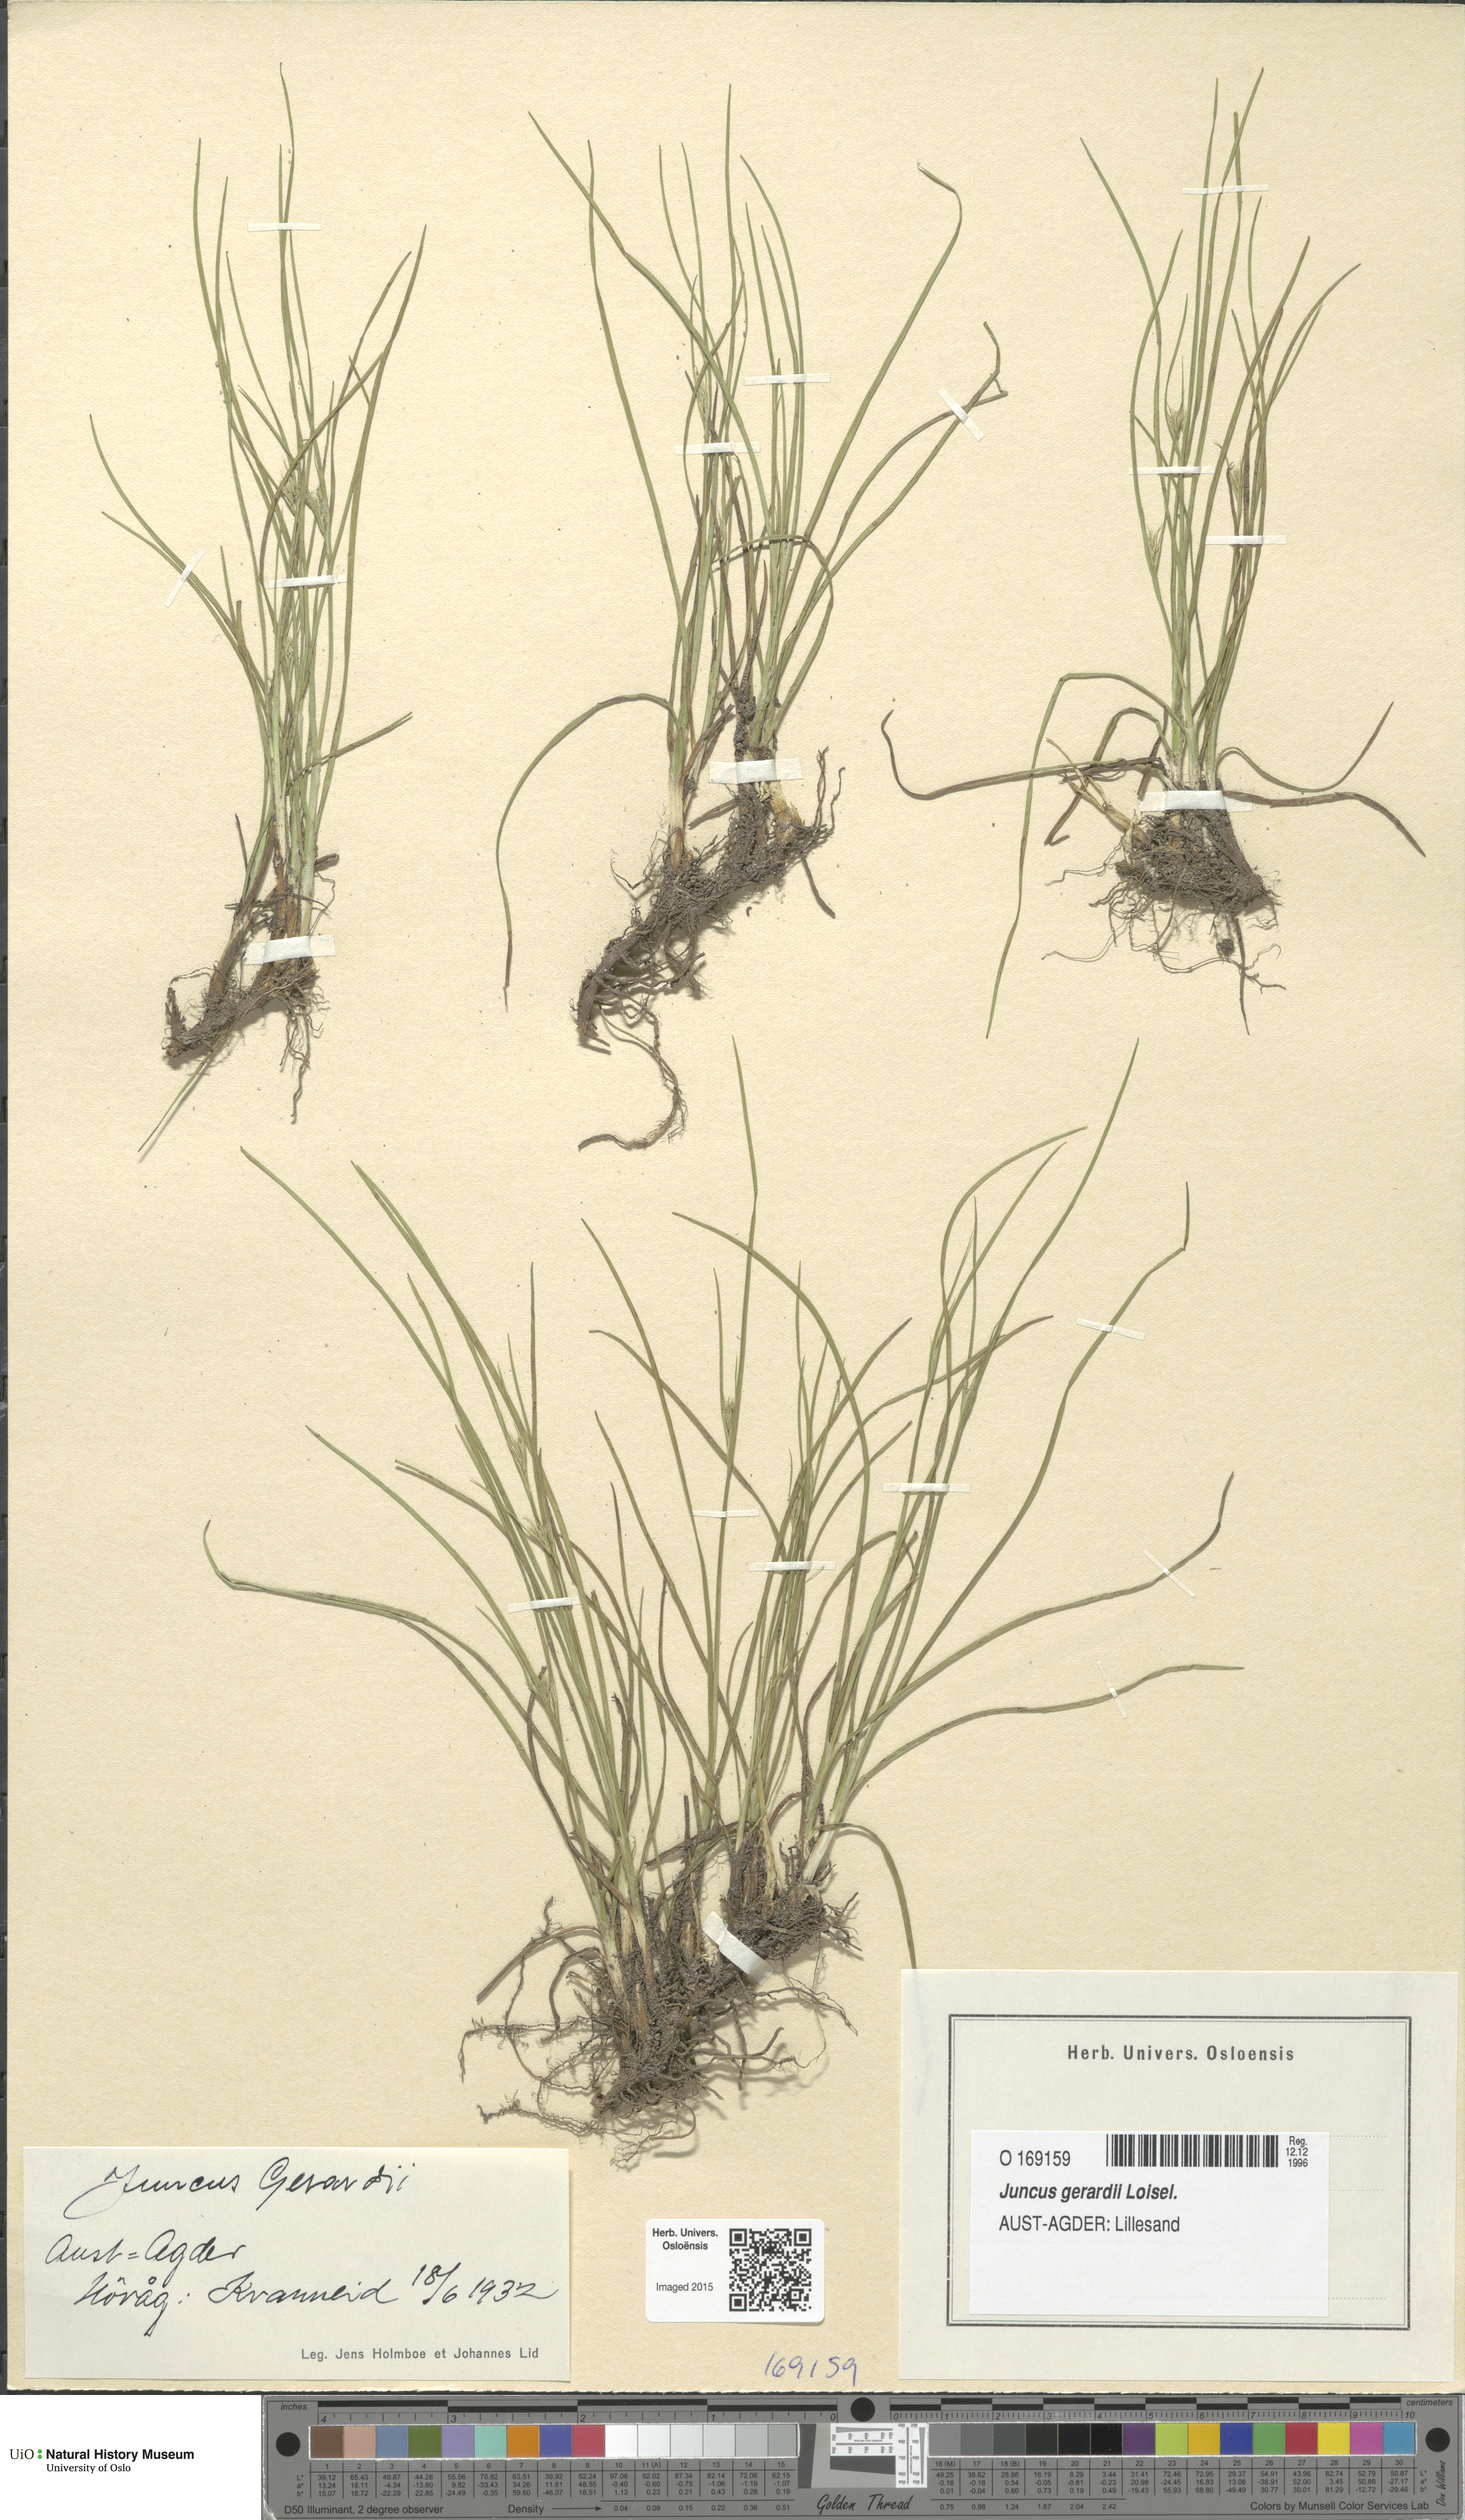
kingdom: Plantae
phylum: Tracheophyta
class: Liliopsida
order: Poales
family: Juncaceae
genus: Juncus
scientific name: Juncus compressus
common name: Round-fruited rush
